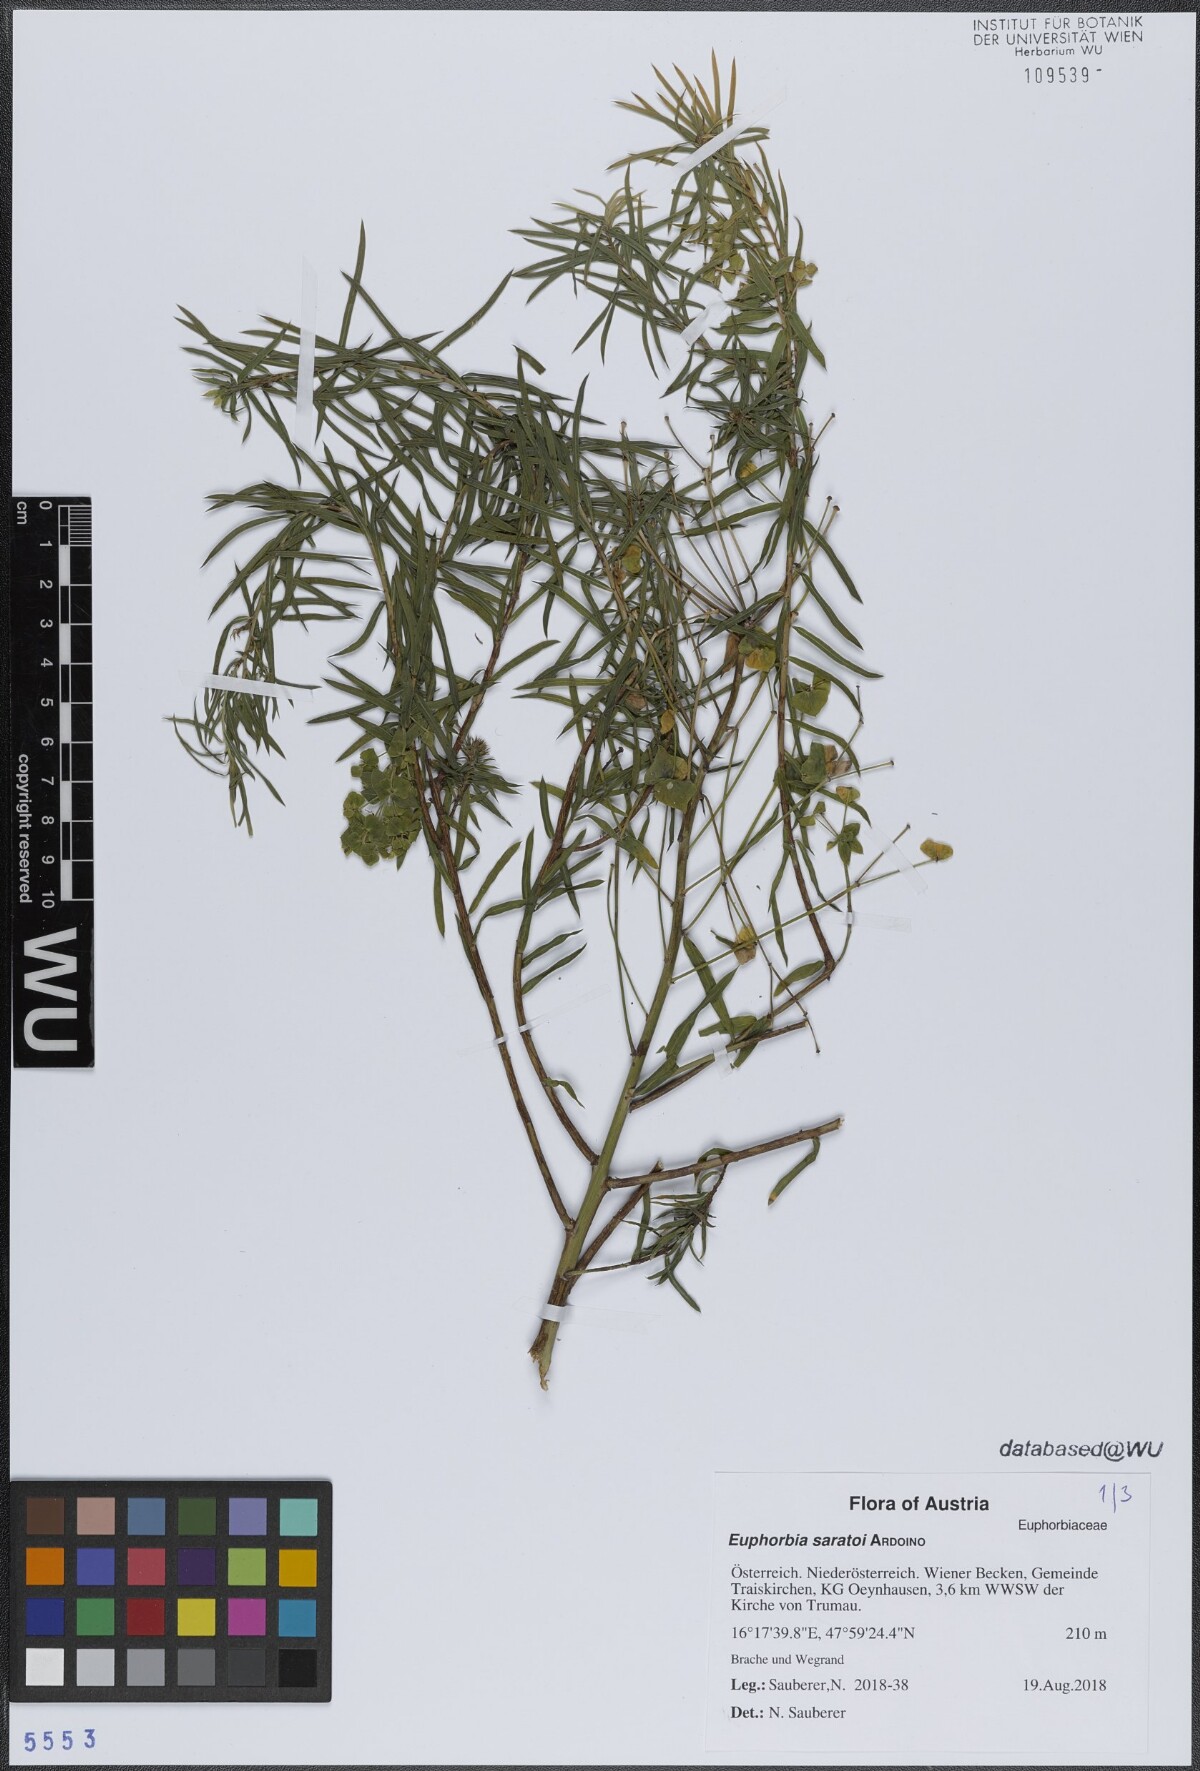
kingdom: Plantae
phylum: Tracheophyta
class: Magnoliopsida
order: Malpighiales
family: Euphorbiaceae
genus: Euphorbia
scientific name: Euphorbia saratoi
